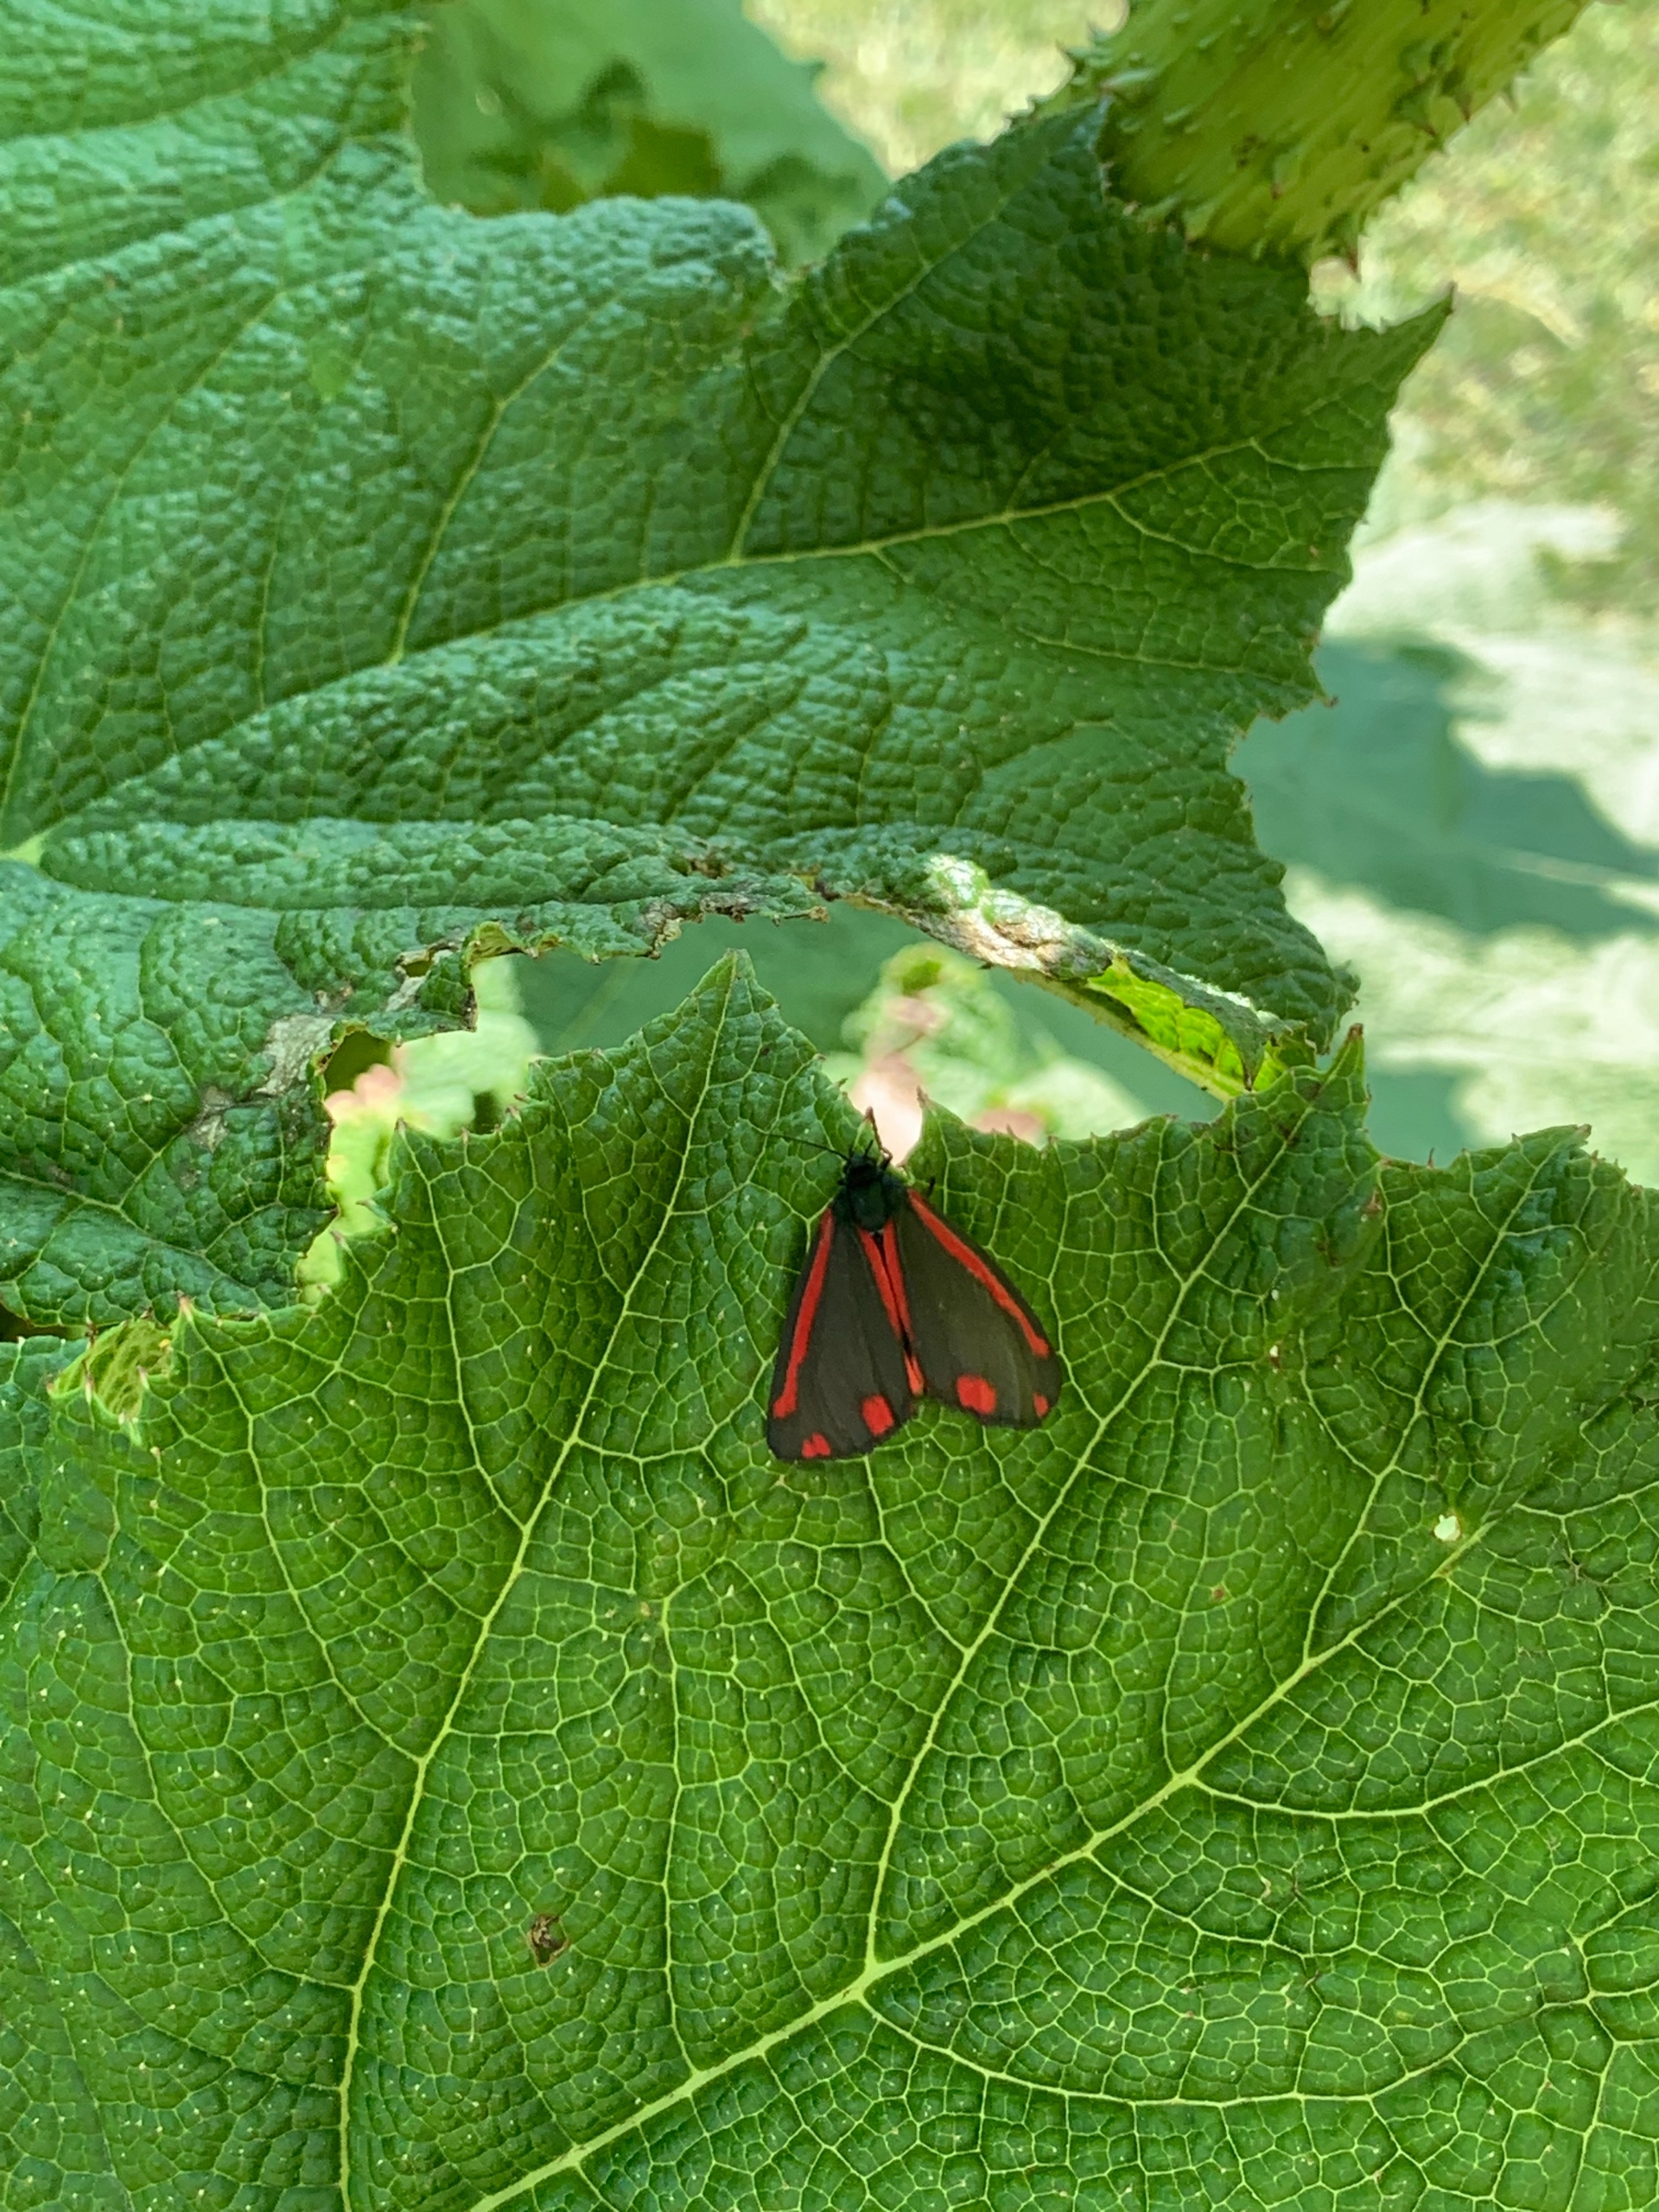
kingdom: Animalia
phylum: Arthropoda
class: Insecta
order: Lepidoptera
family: Erebidae
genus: Tyria
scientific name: Tyria jacobaeae
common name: Blodplet
